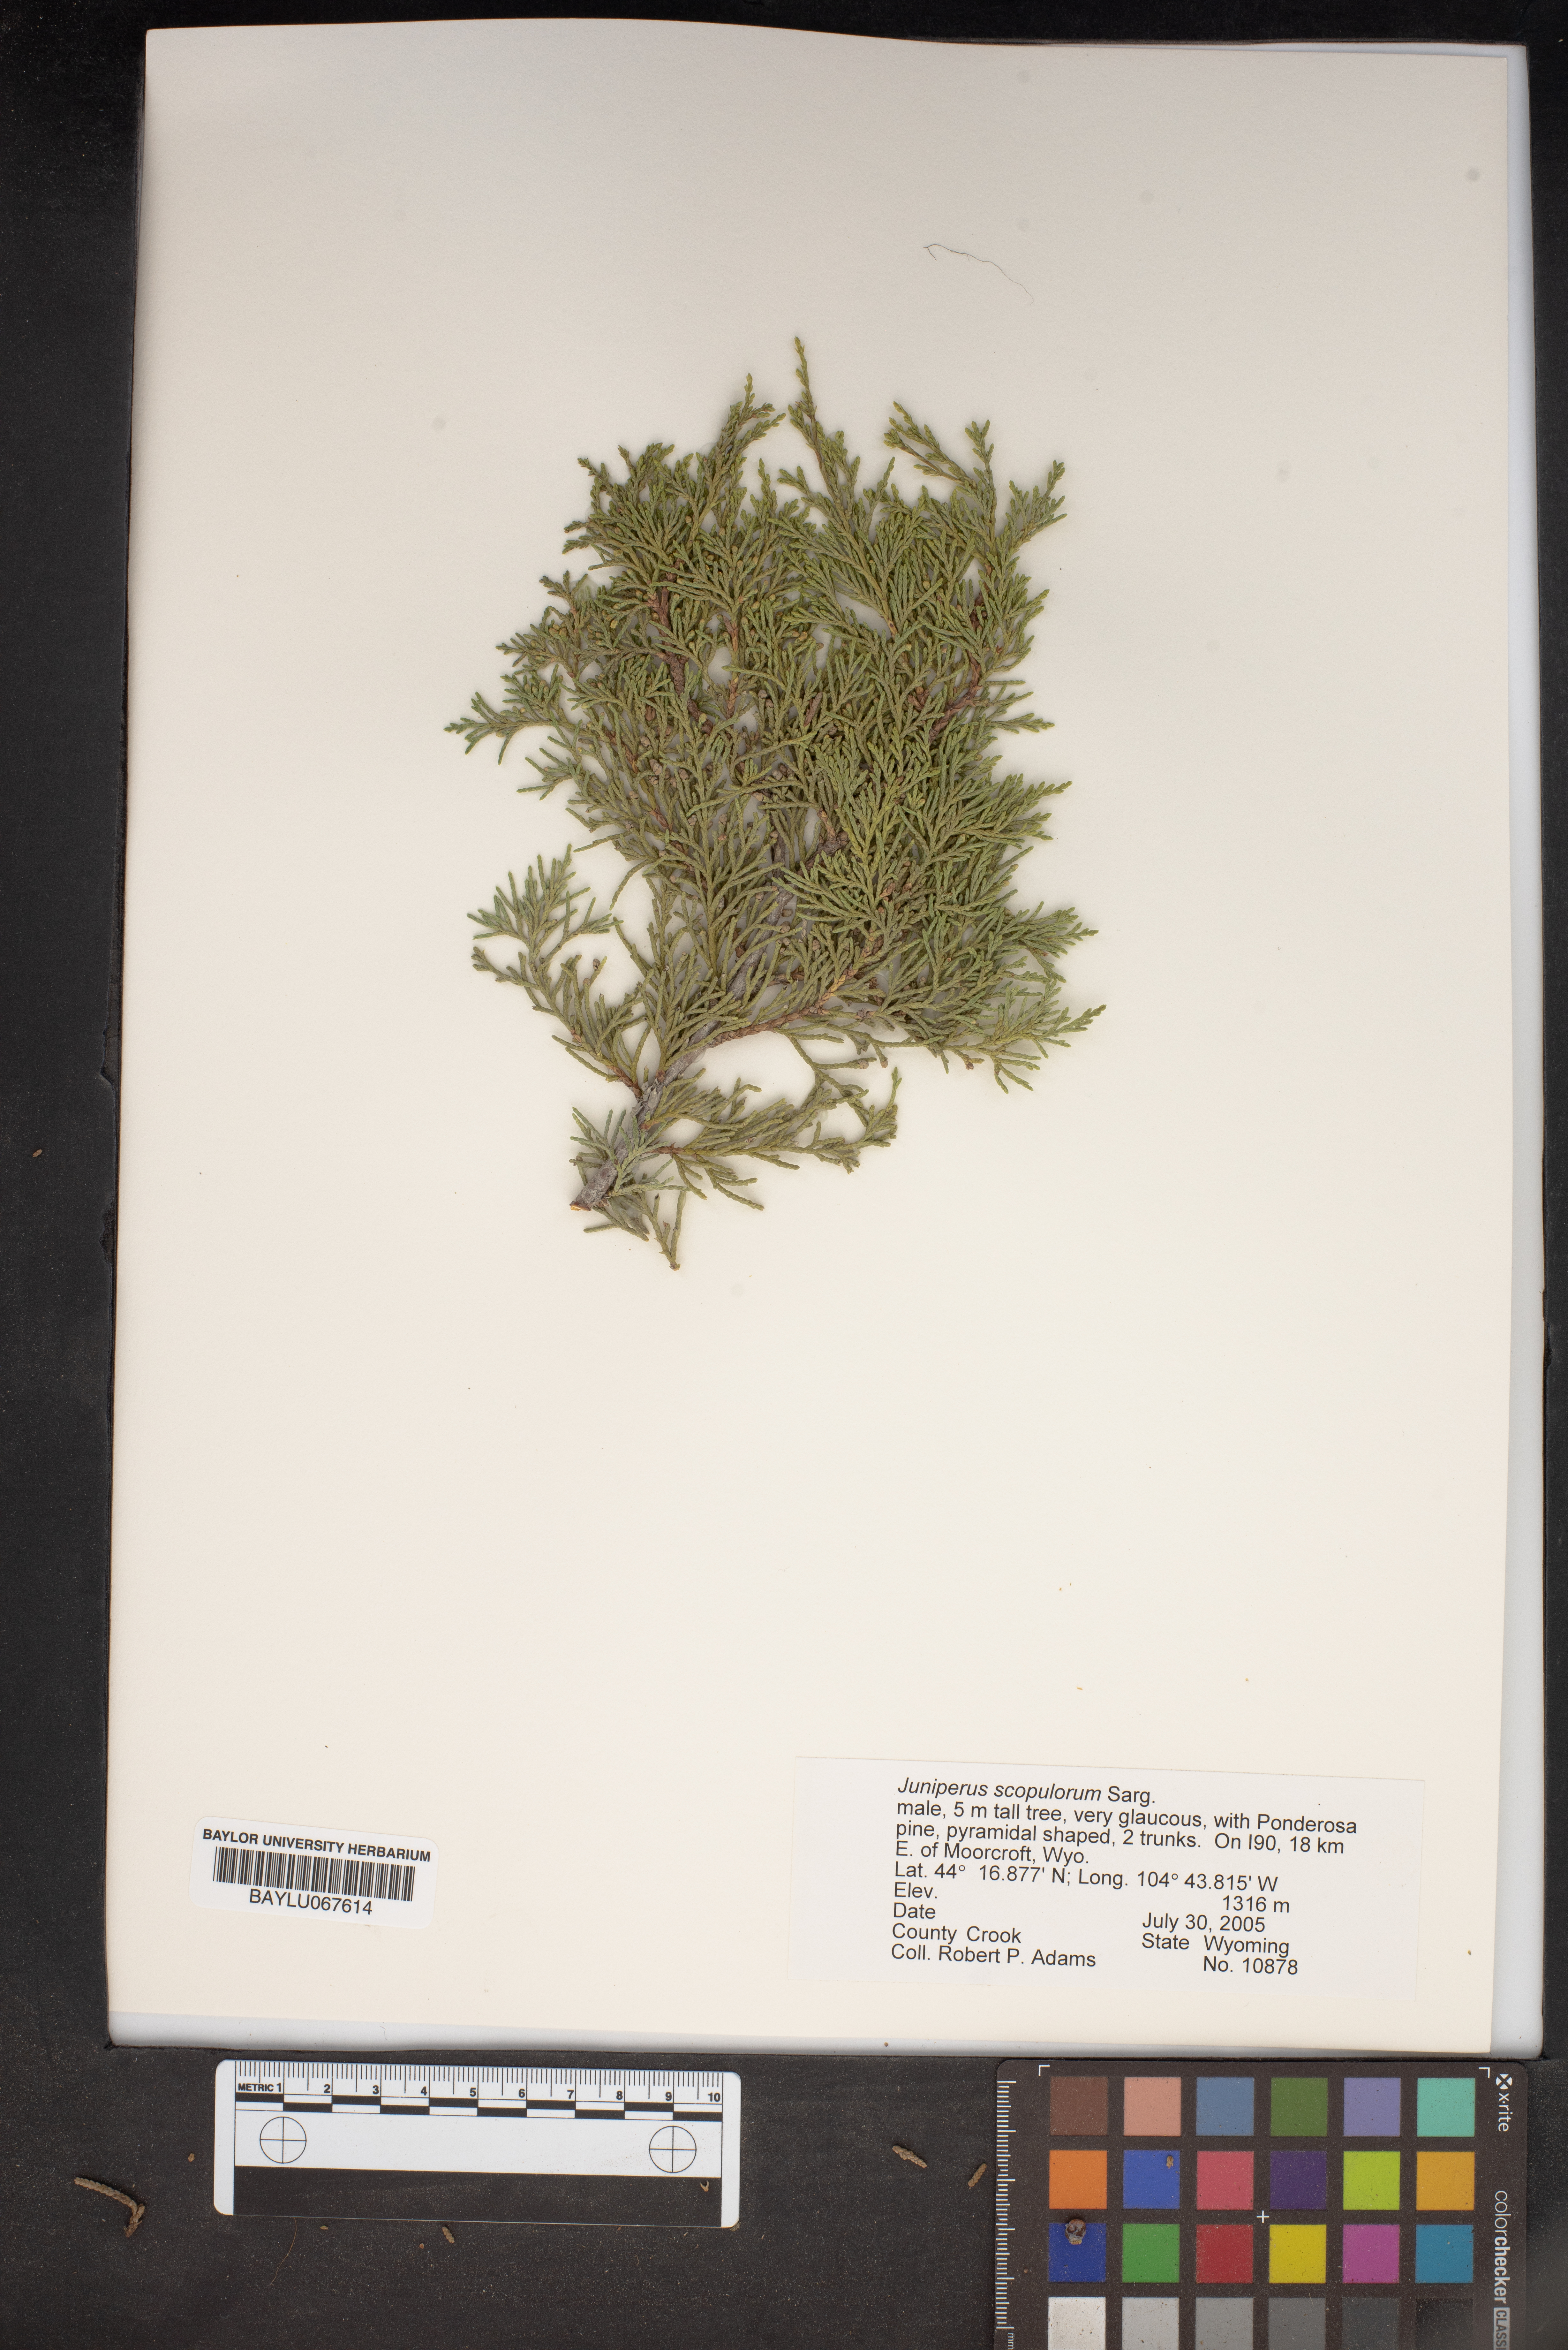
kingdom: Plantae
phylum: Tracheophyta
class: Pinopsida
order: Pinales
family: Cupressaceae
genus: Juniperus
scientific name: Juniperus scopulorum
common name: Rocky mountain juniper
